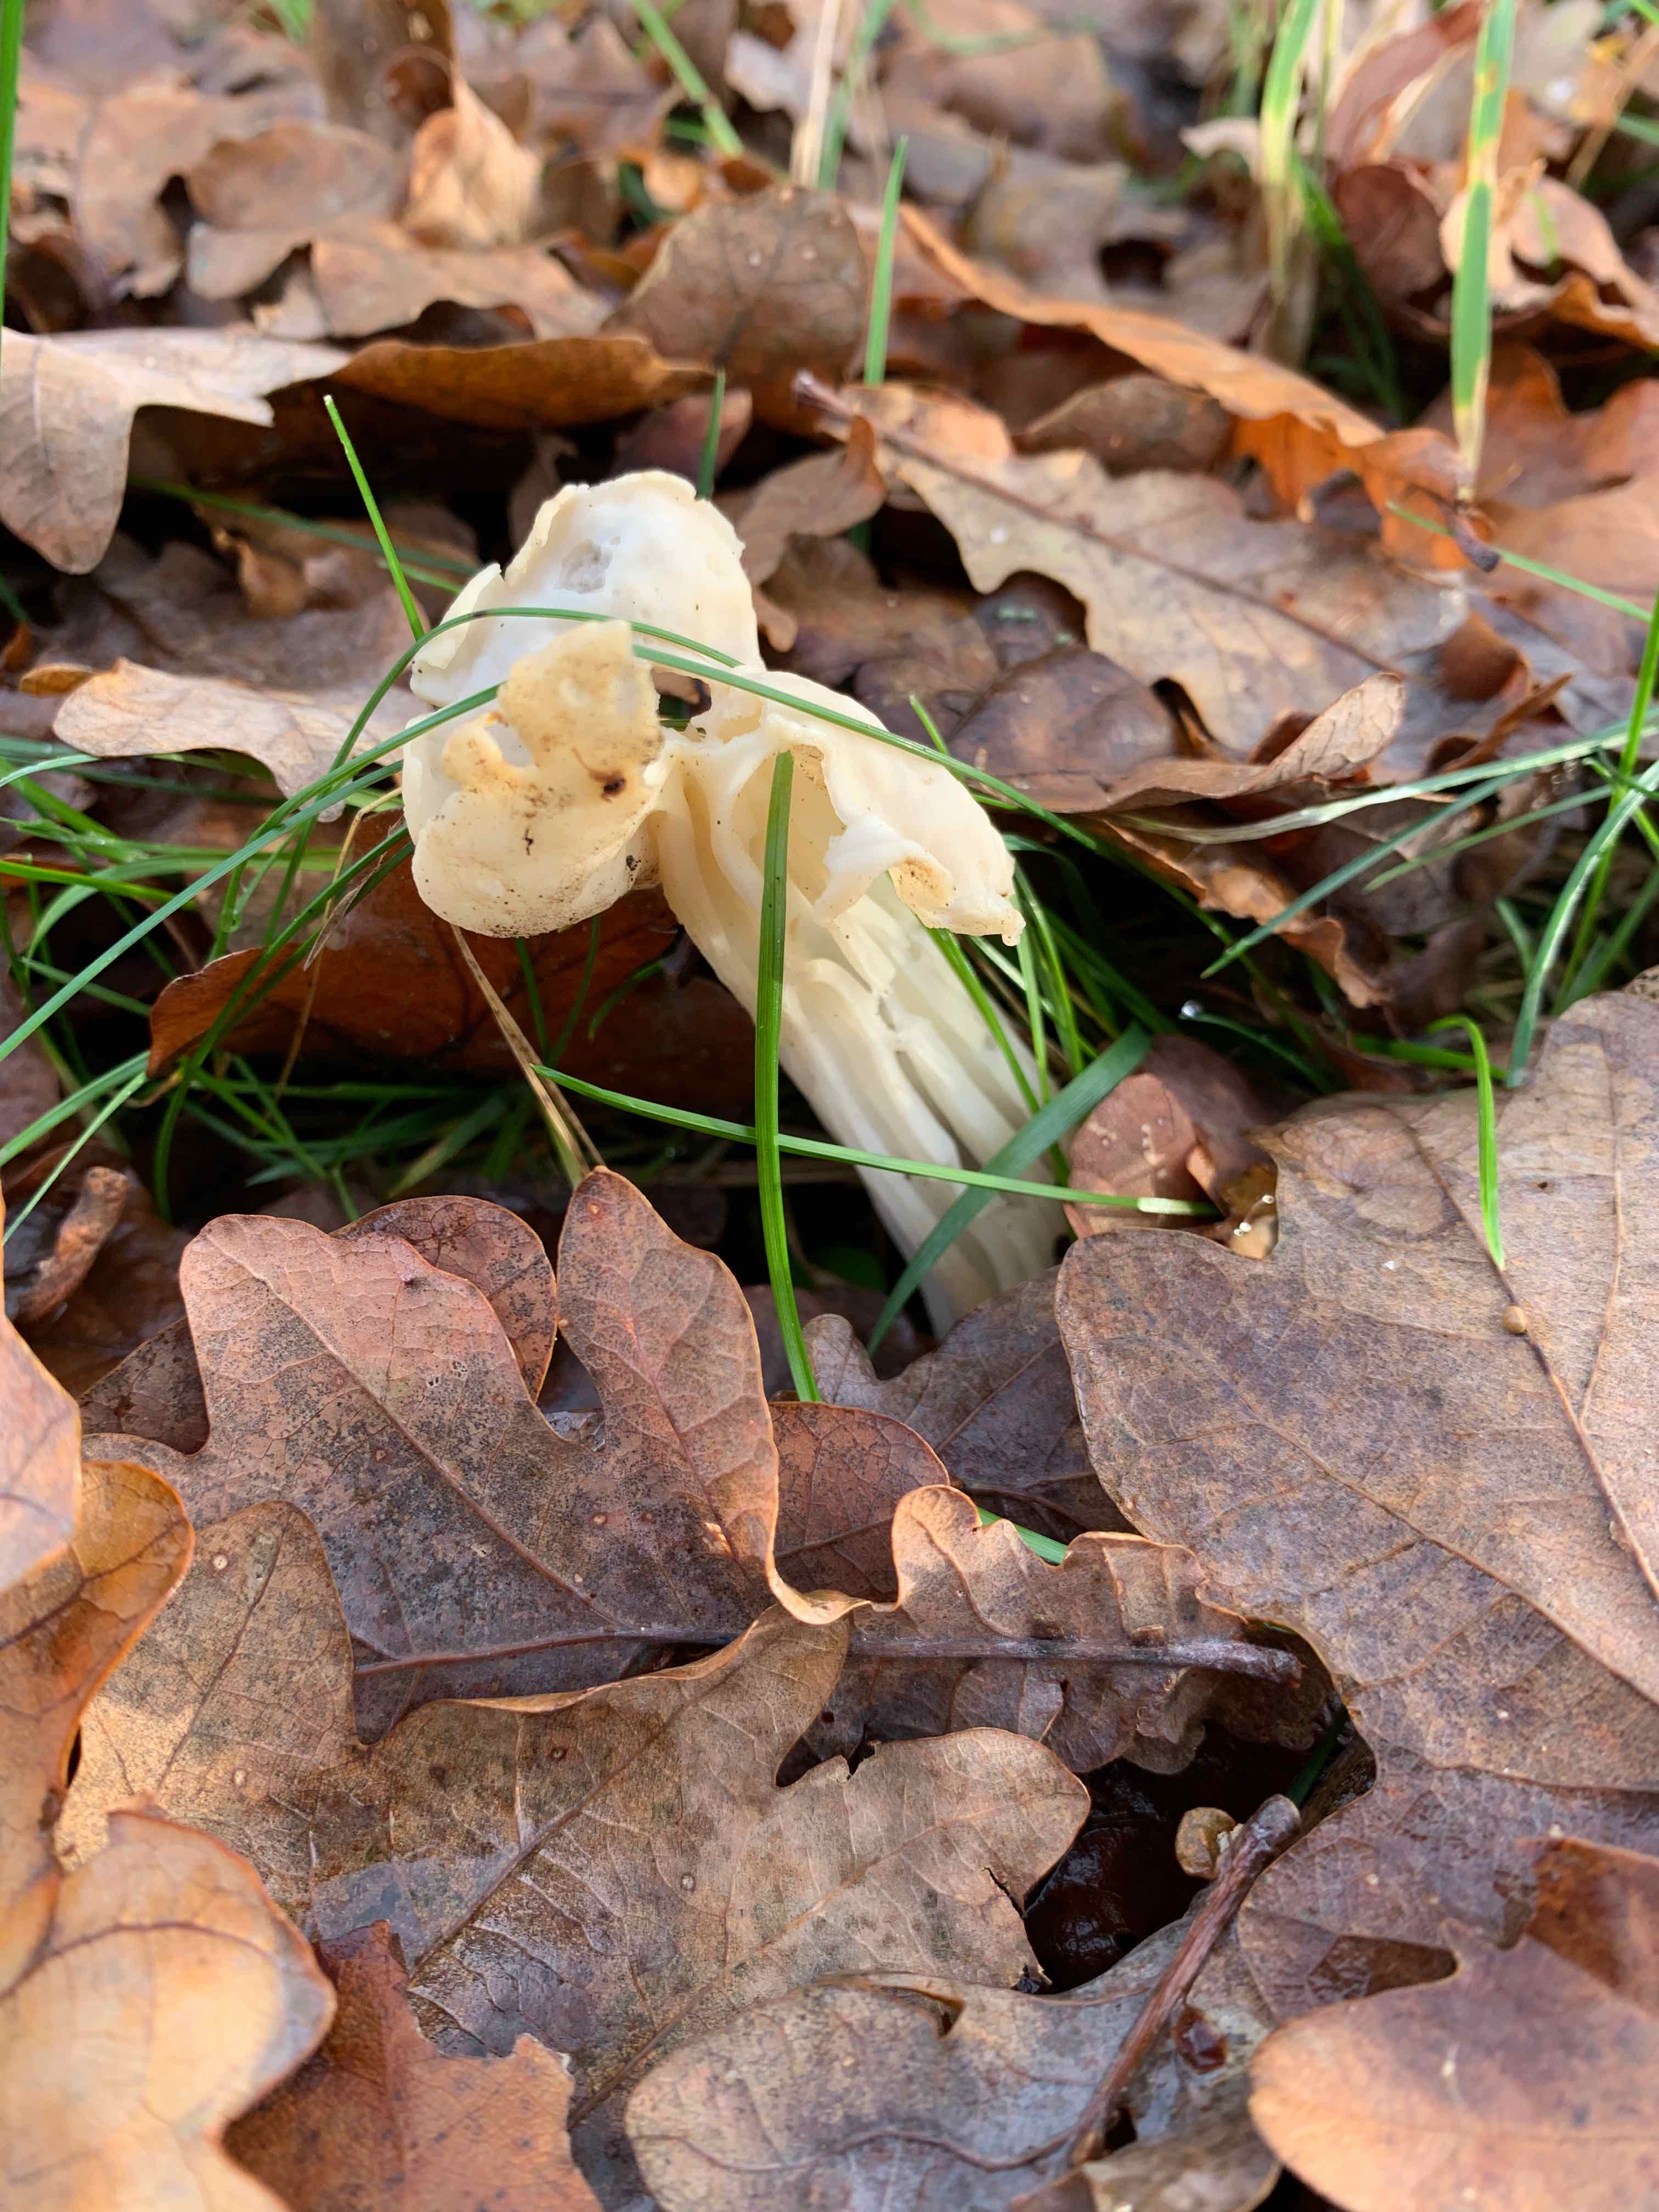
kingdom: Fungi
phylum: Ascomycota
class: Pezizomycetes
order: Pezizales
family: Helvellaceae
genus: Helvella
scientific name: Helvella crispa
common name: kruset foldhat
